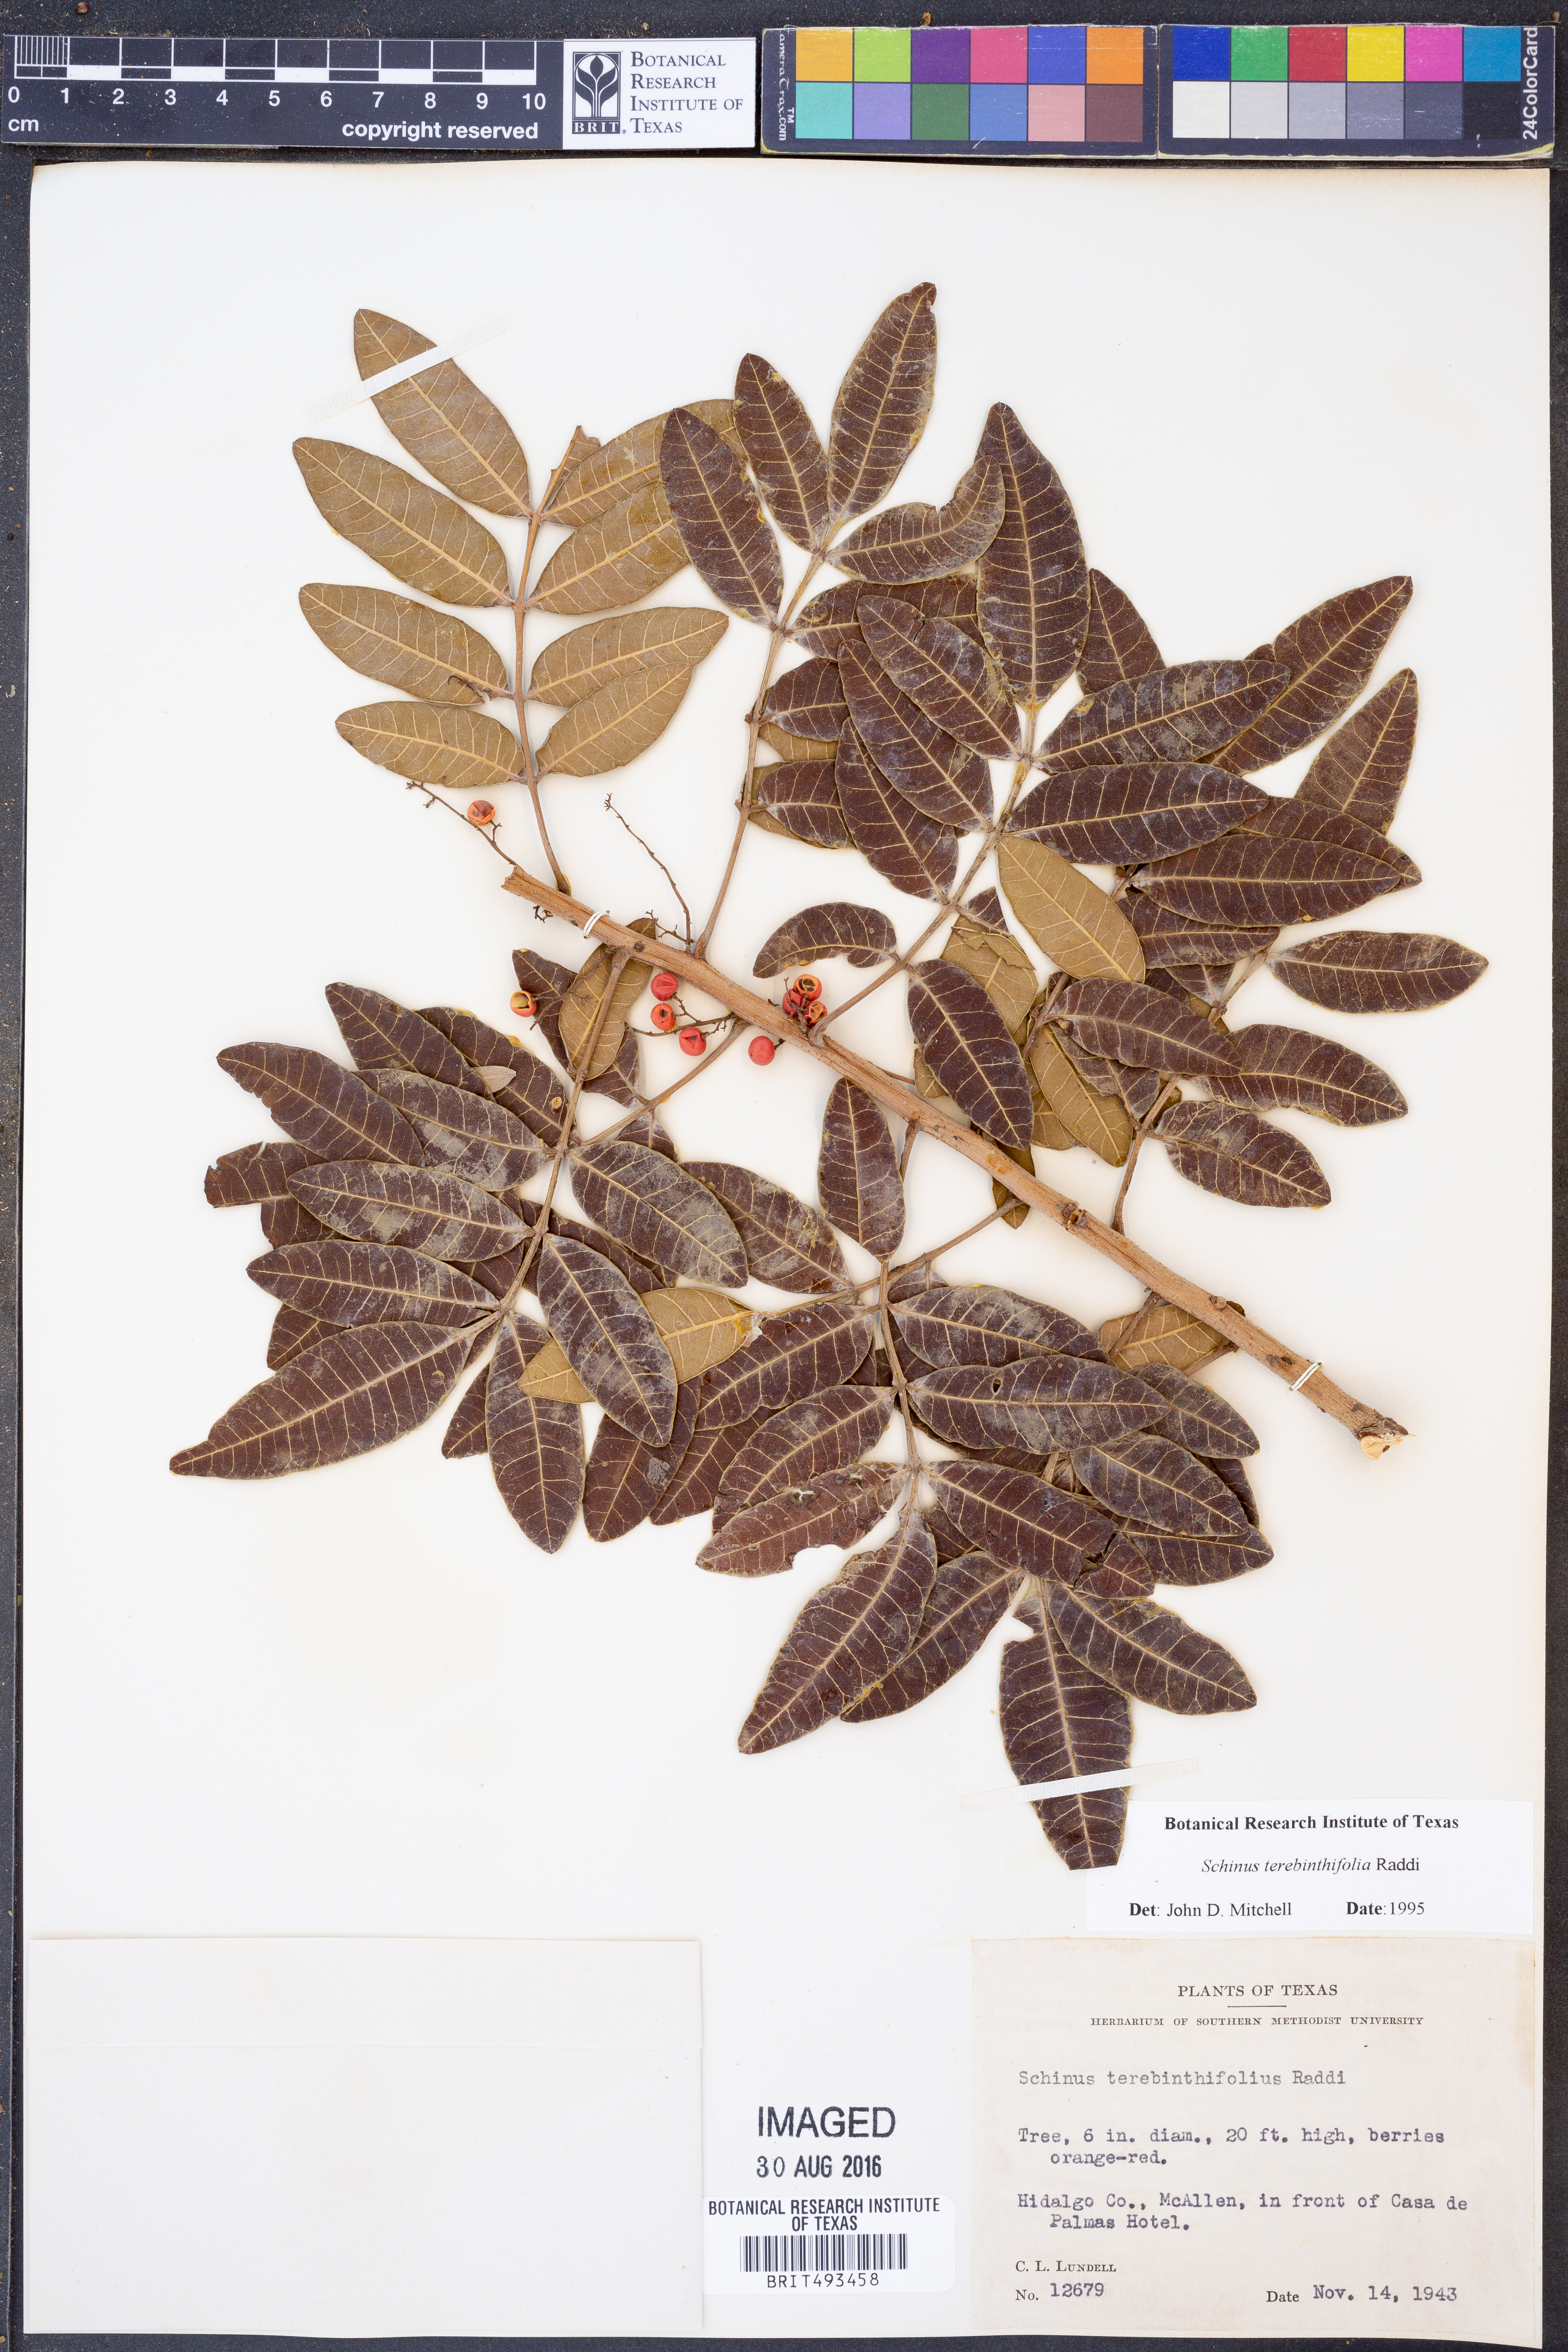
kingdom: Plantae
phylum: Tracheophyta
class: Magnoliopsida
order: Sapindales
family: Anacardiaceae
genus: Schinus
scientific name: Schinus terebinthifolia
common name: Brazilian peppertree
